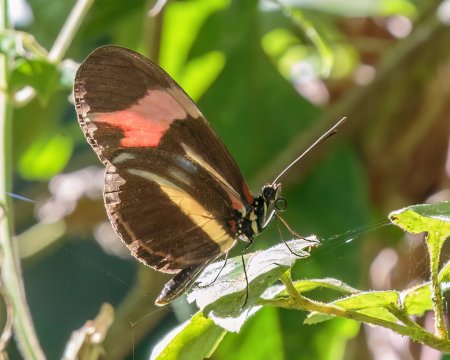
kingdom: Animalia
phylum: Arthropoda
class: Insecta
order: Lepidoptera
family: Nymphalidae
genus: Heliconius
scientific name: Heliconius besckei
